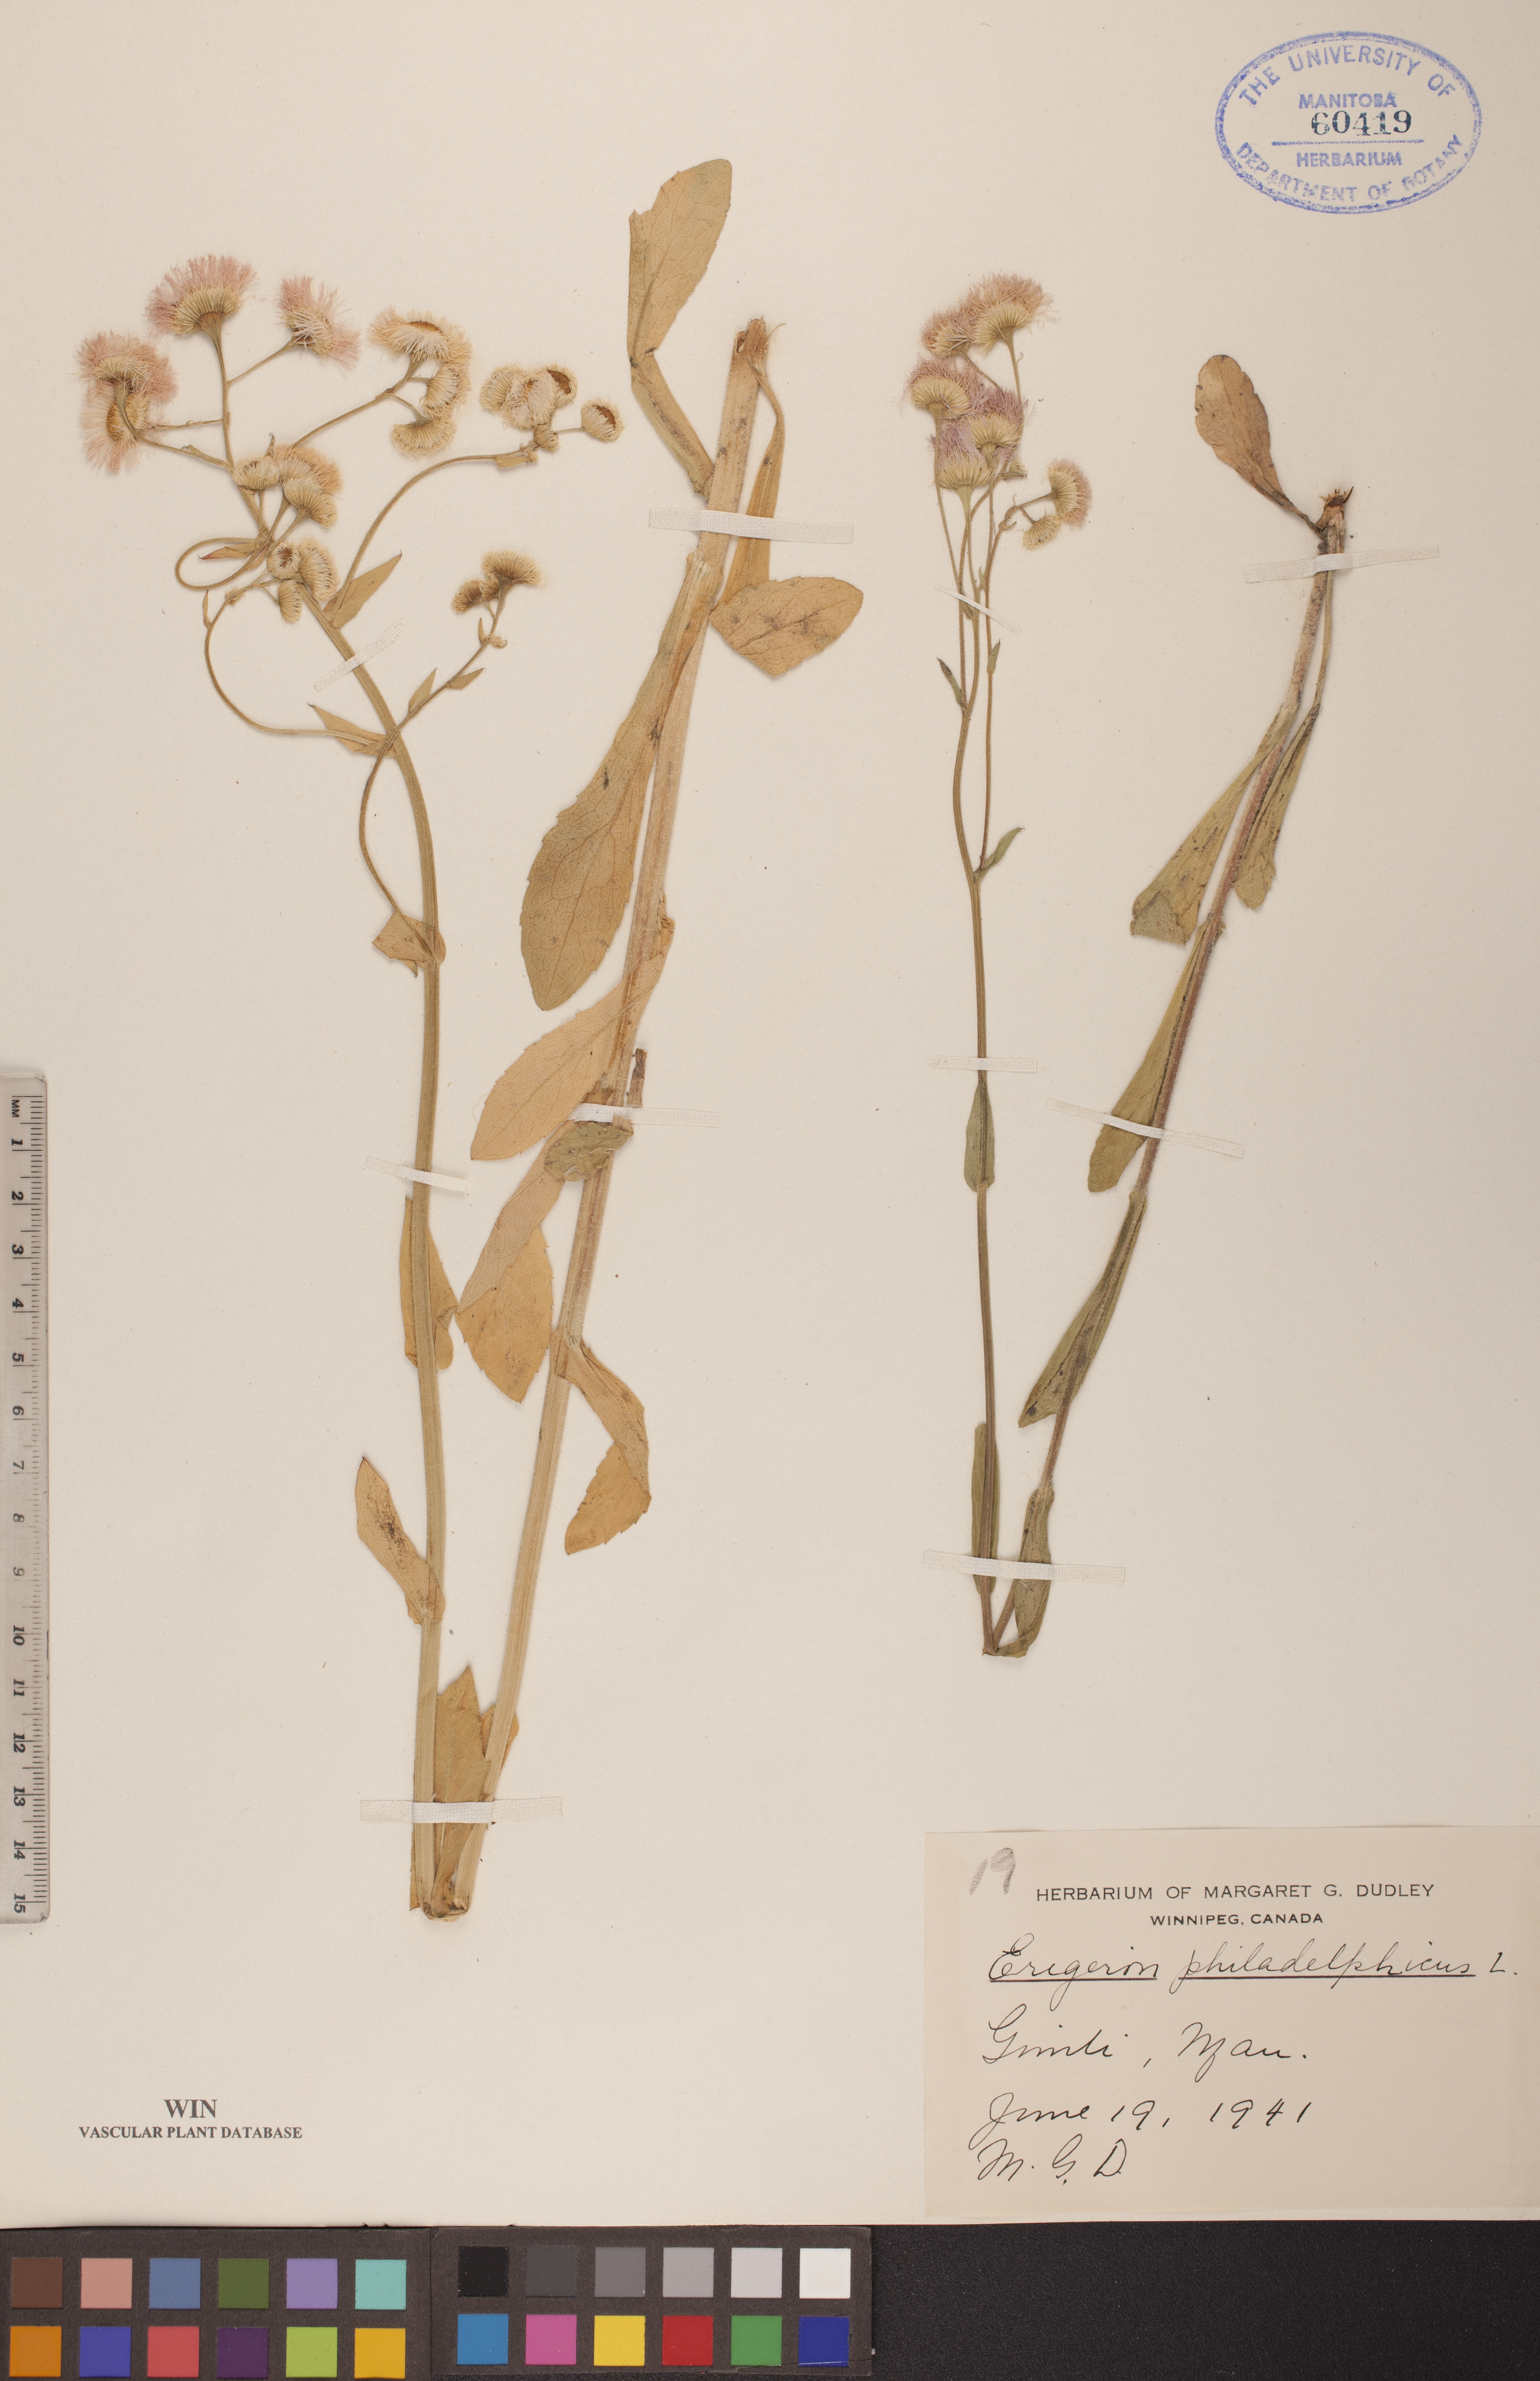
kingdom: Plantae
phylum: Tracheophyta
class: Magnoliopsida
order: Asterales
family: Asteraceae
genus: Erigeron
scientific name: Erigeron philadelphicus
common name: Robin's-plantain
